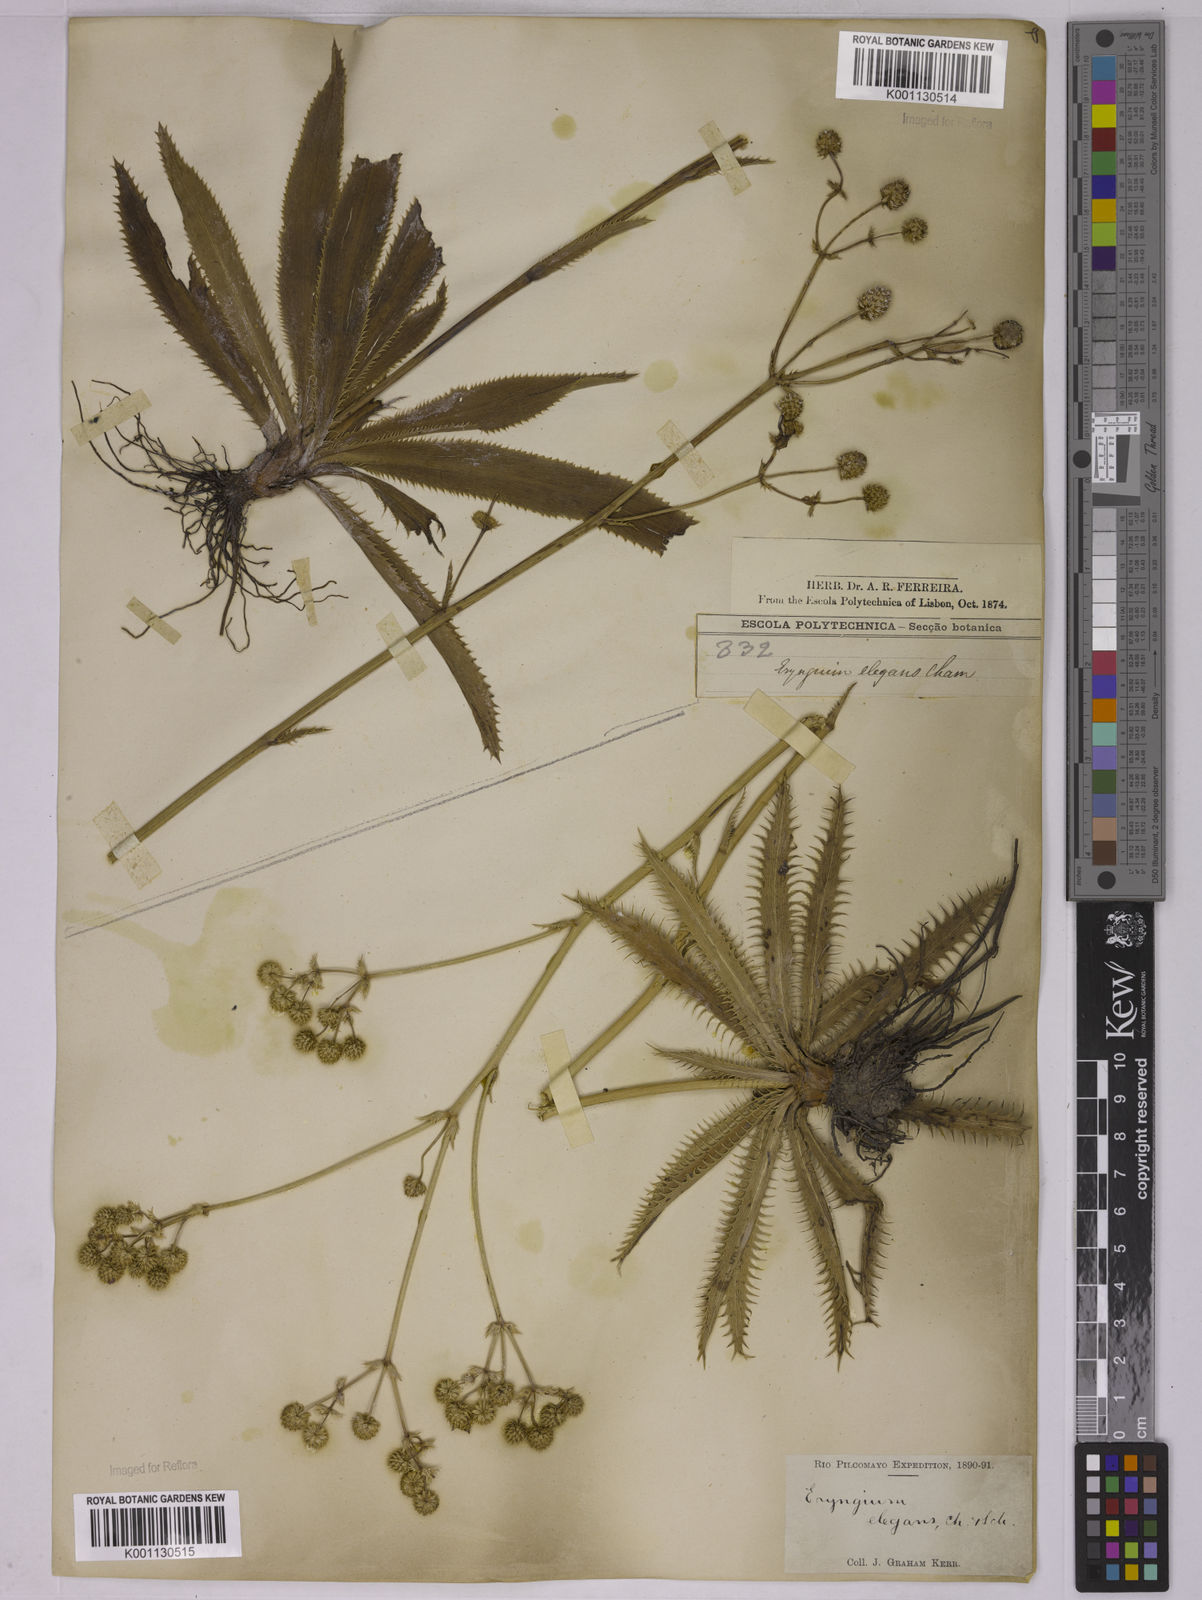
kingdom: Plantae
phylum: Tracheophyta
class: Magnoliopsida
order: Apiales
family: Apiaceae
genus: Eryngium
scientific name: Eryngium elegans
